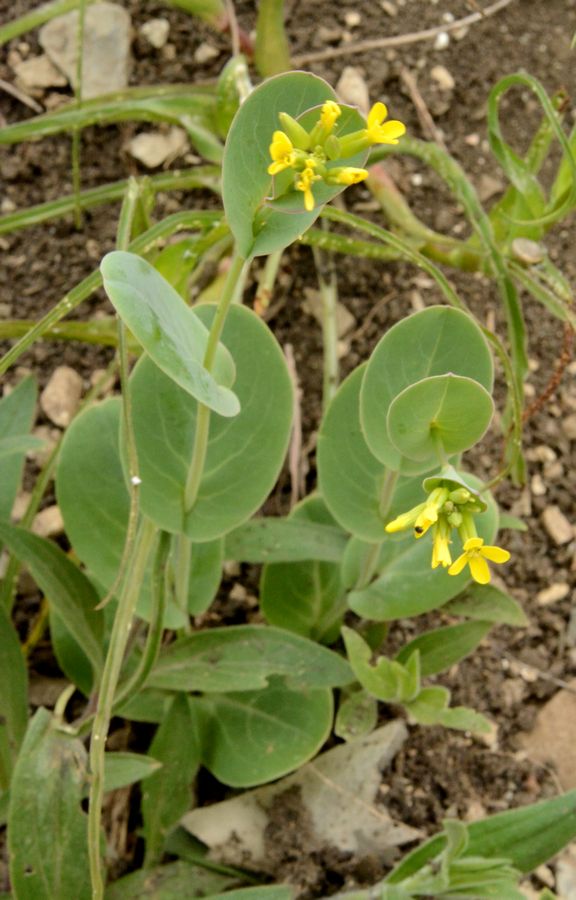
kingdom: Plantae
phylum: Tracheophyta
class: Magnoliopsida
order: Brassicales
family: Brassicaceae
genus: Conringia
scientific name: Conringia austriaca
